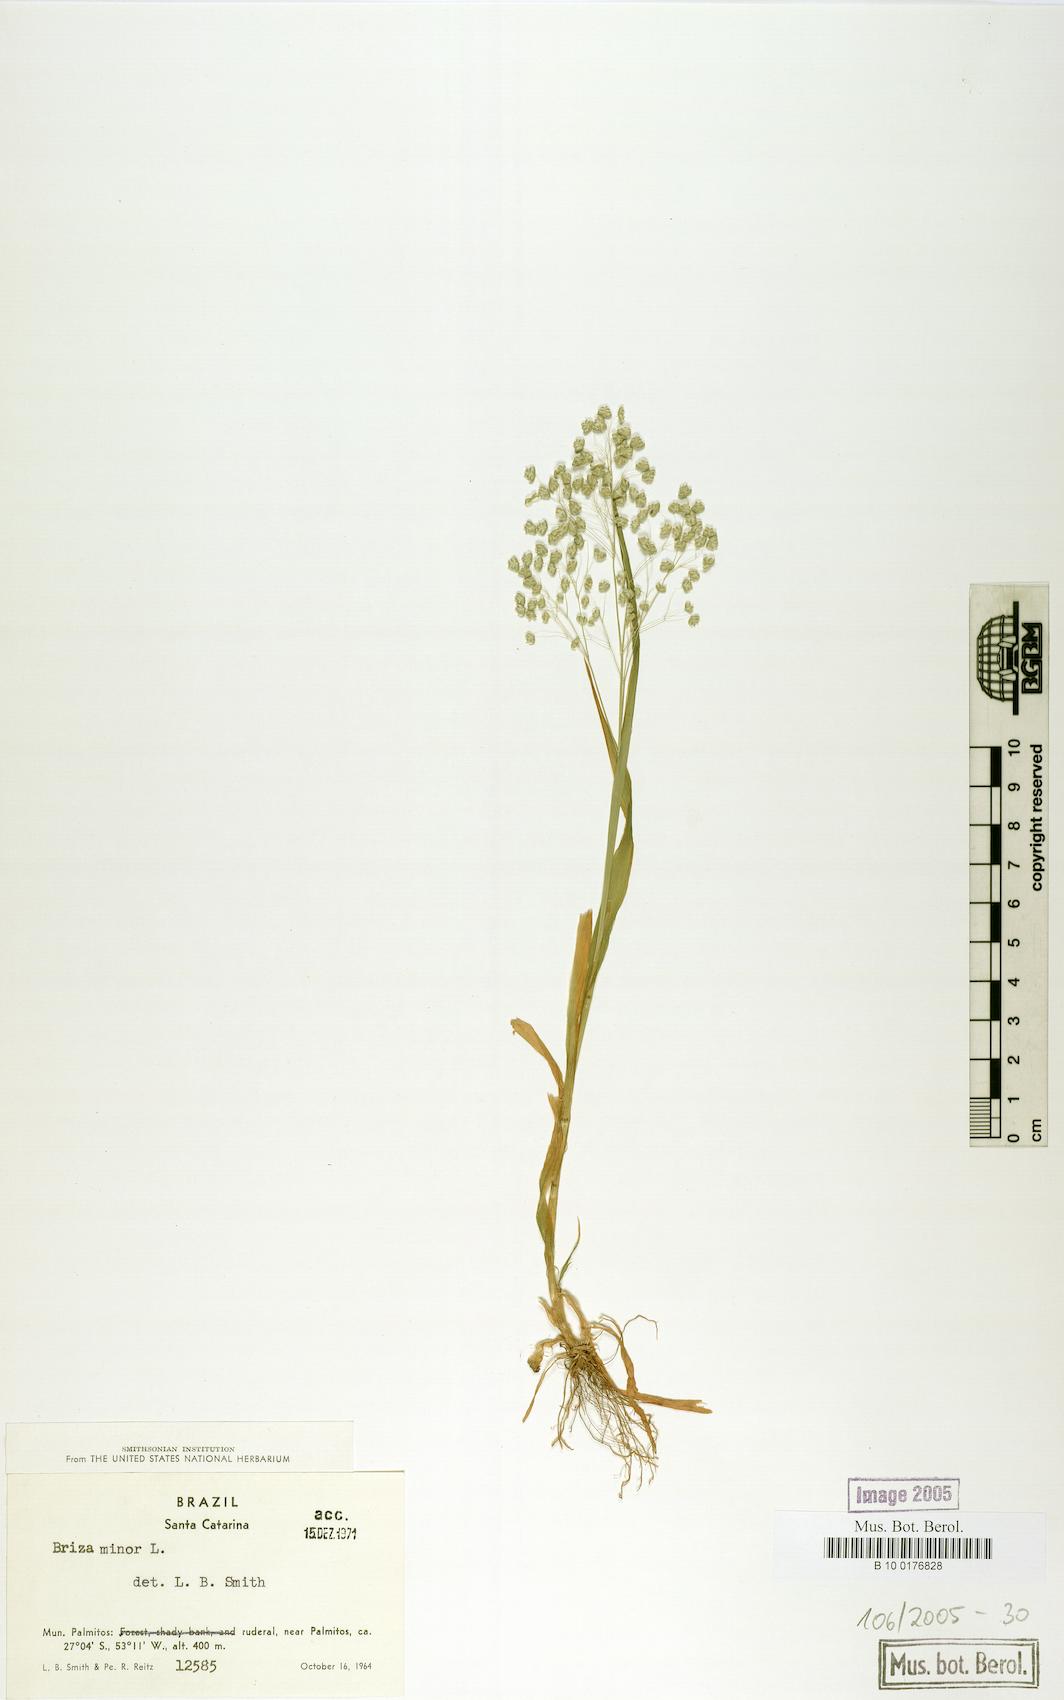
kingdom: Plantae
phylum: Tracheophyta
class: Liliopsida
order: Poales
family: Poaceae
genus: Briza
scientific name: Briza minor
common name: Lesser quaking-grass
